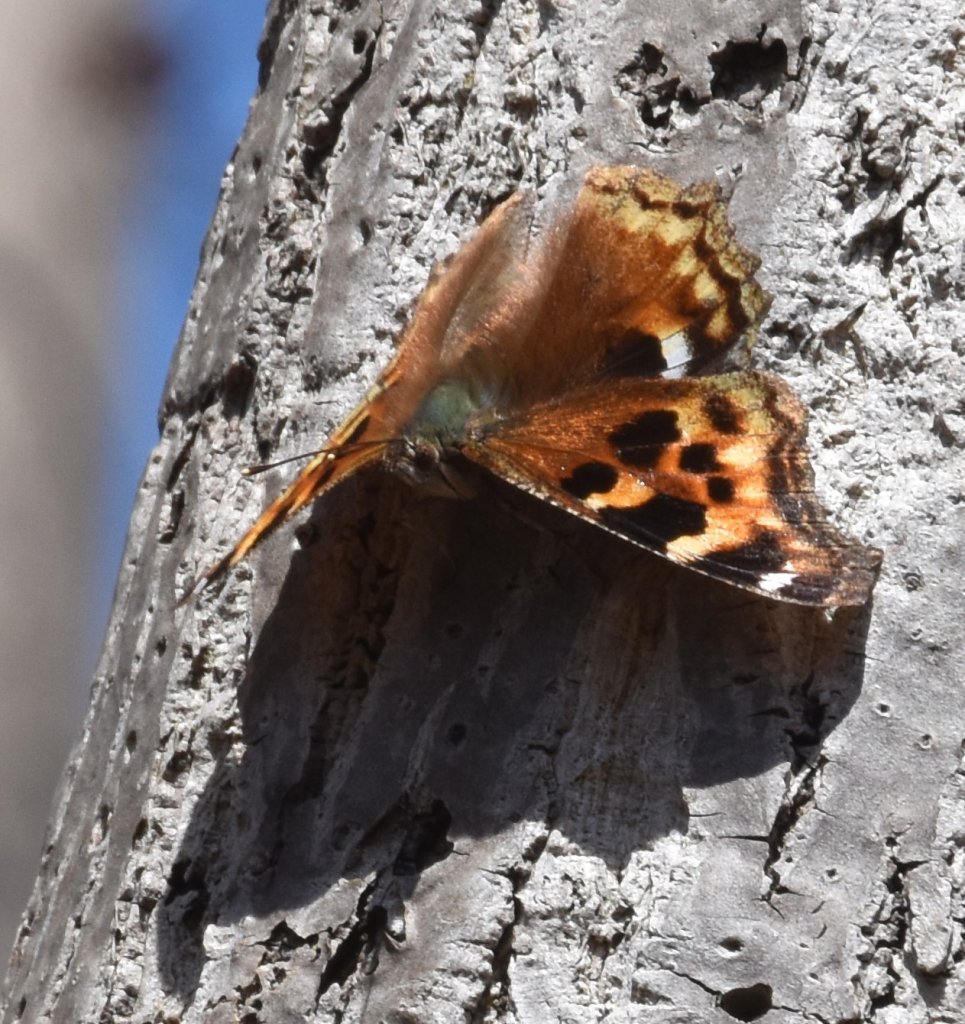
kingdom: Animalia
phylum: Arthropoda
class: Insecta
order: Lepidoptera
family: Nymphalidae
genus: Polygonia
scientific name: Polygonia vaualbum
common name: Compton Tortoiseshell
